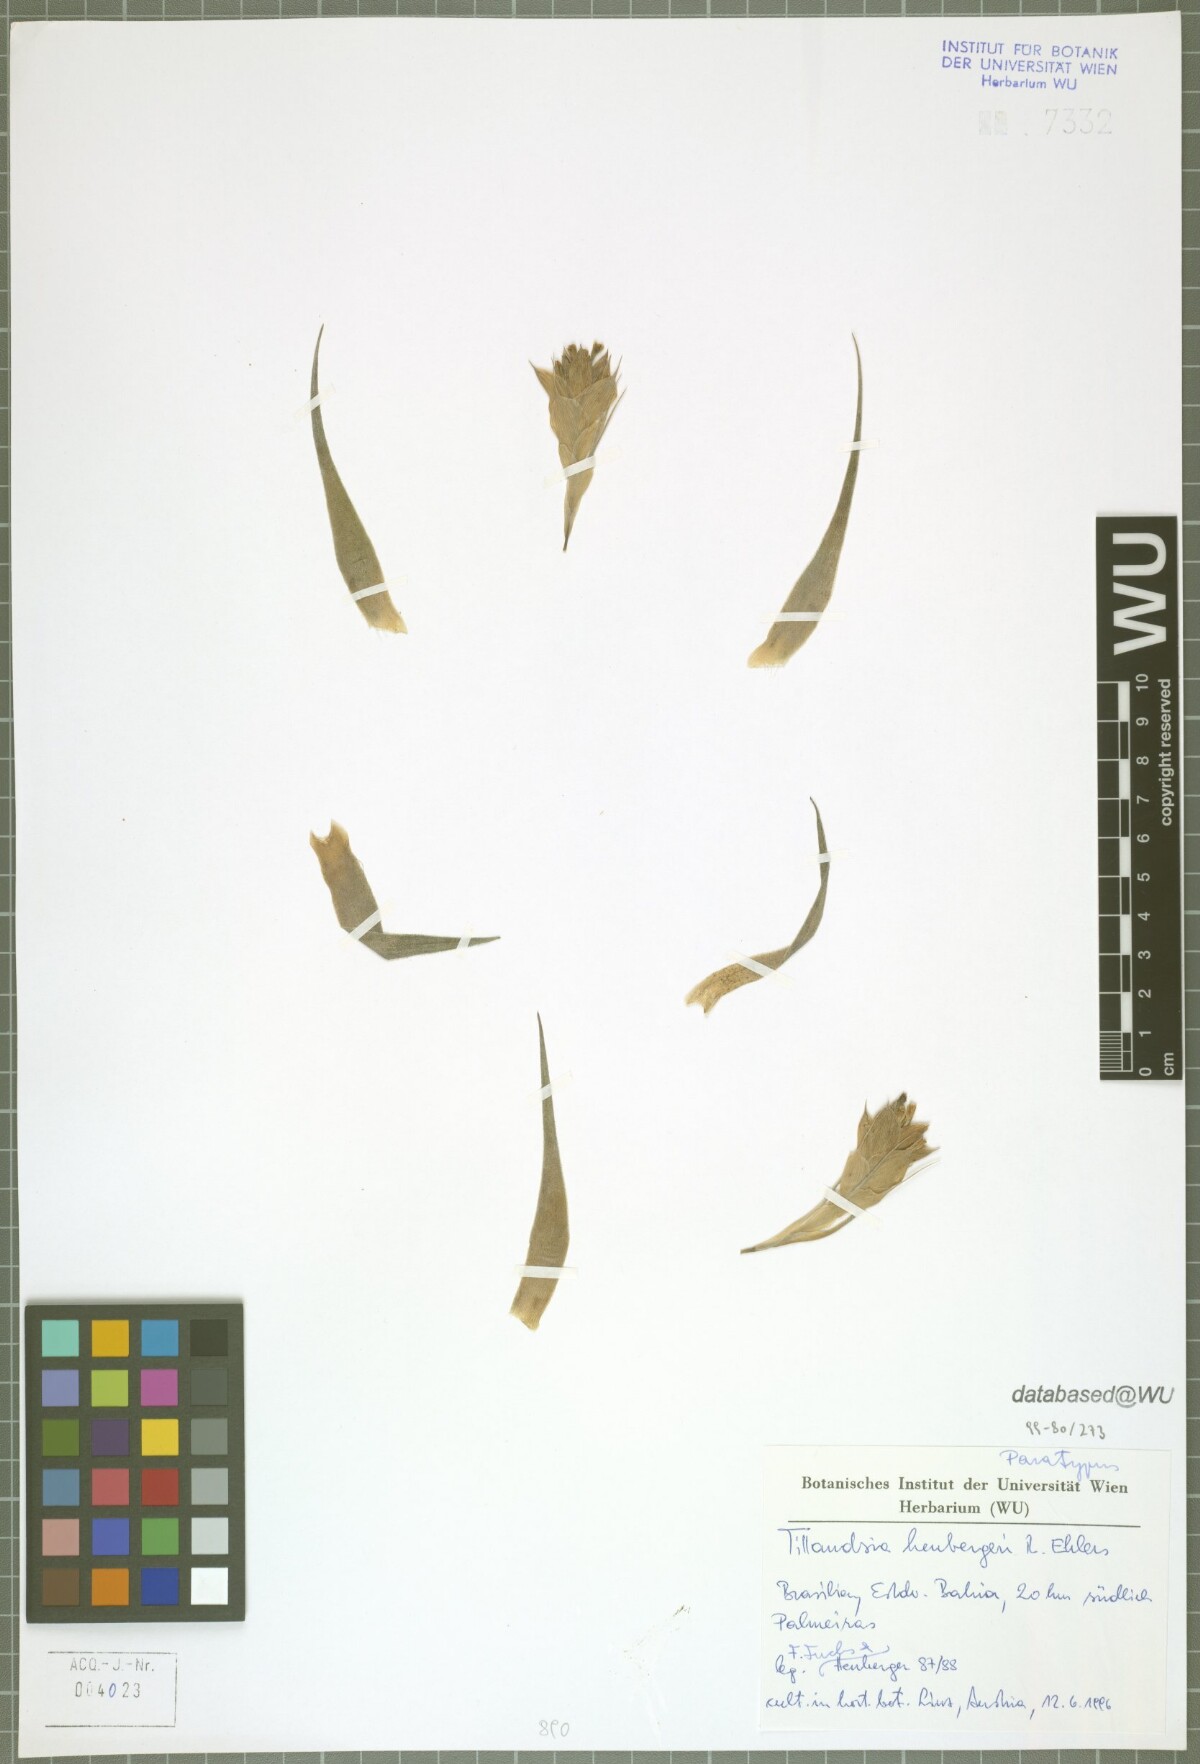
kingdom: Plantae
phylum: Tracheophyta
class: Liliopsida
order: Poales
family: Bromeliaceae
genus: Tillandsia
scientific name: Tillandsia heubergeri
